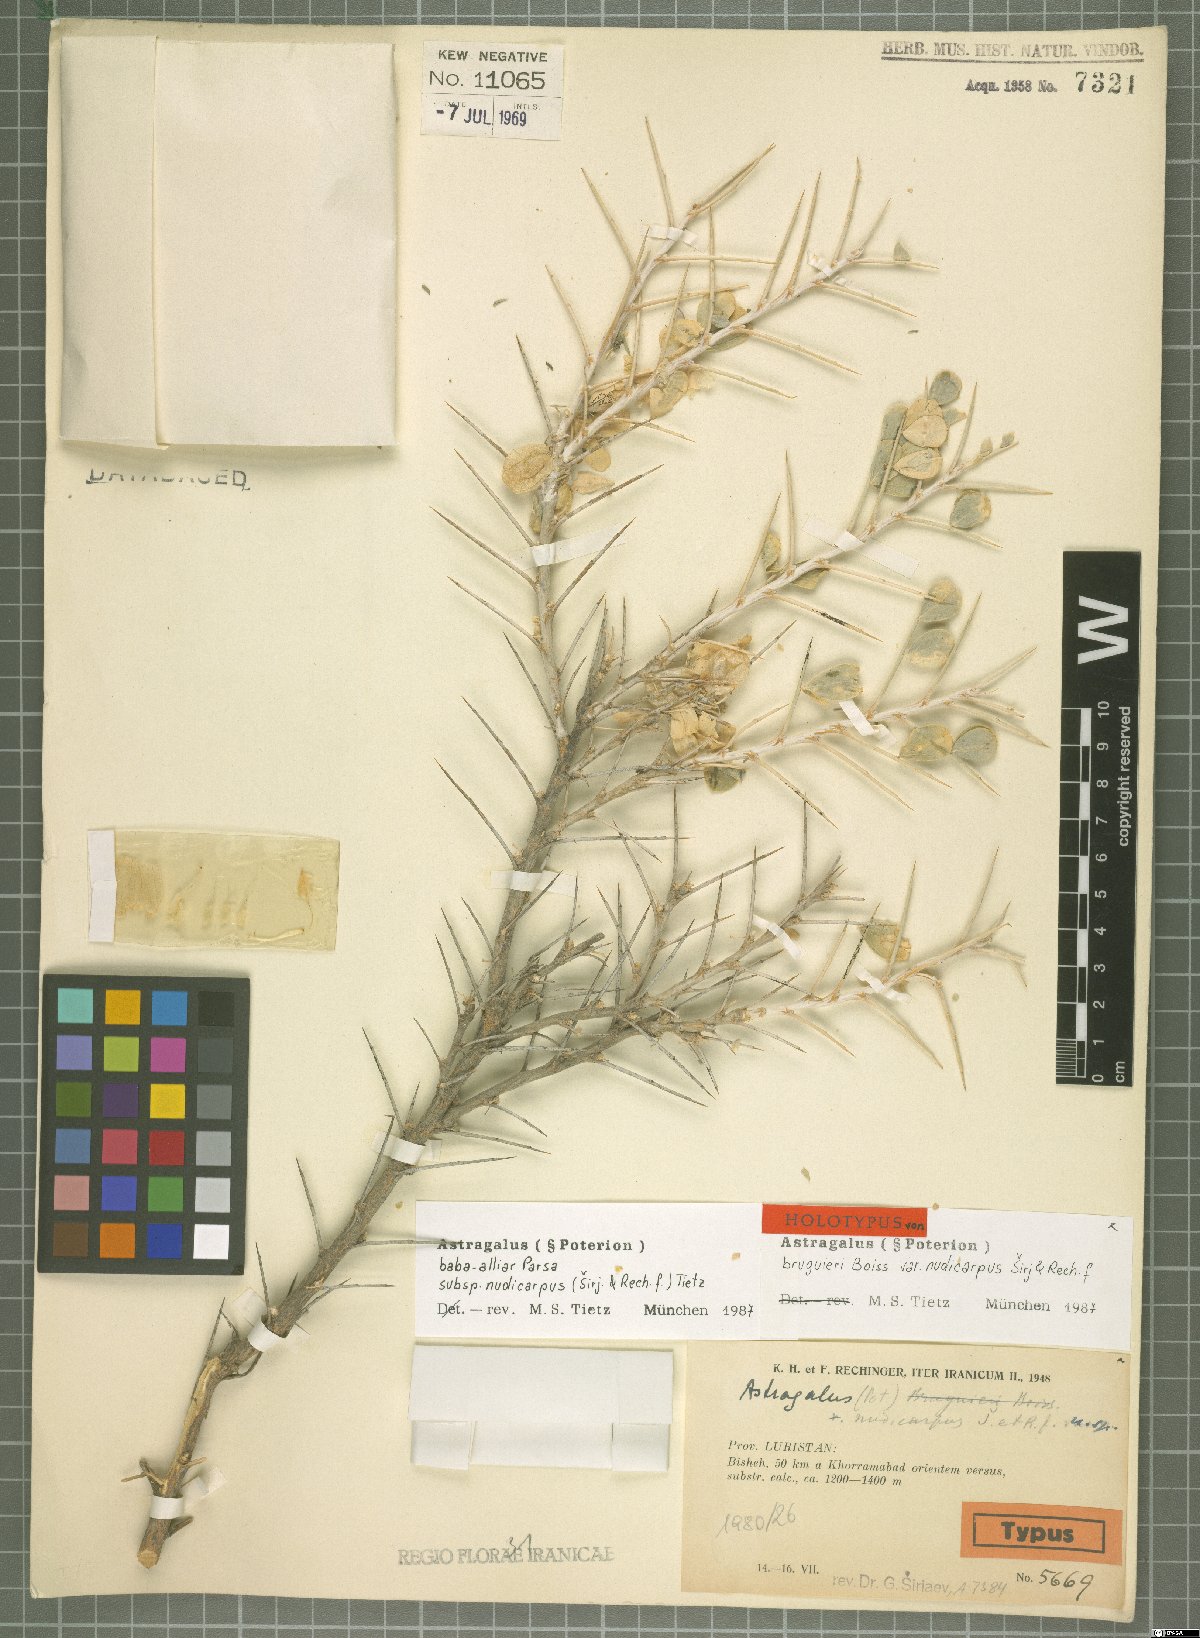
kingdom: Plantae
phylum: Tracheophyta
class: Magnoliopsida
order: Fabales
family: Fabaceae
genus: Astragalus
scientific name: Astragalus baba-alliar
